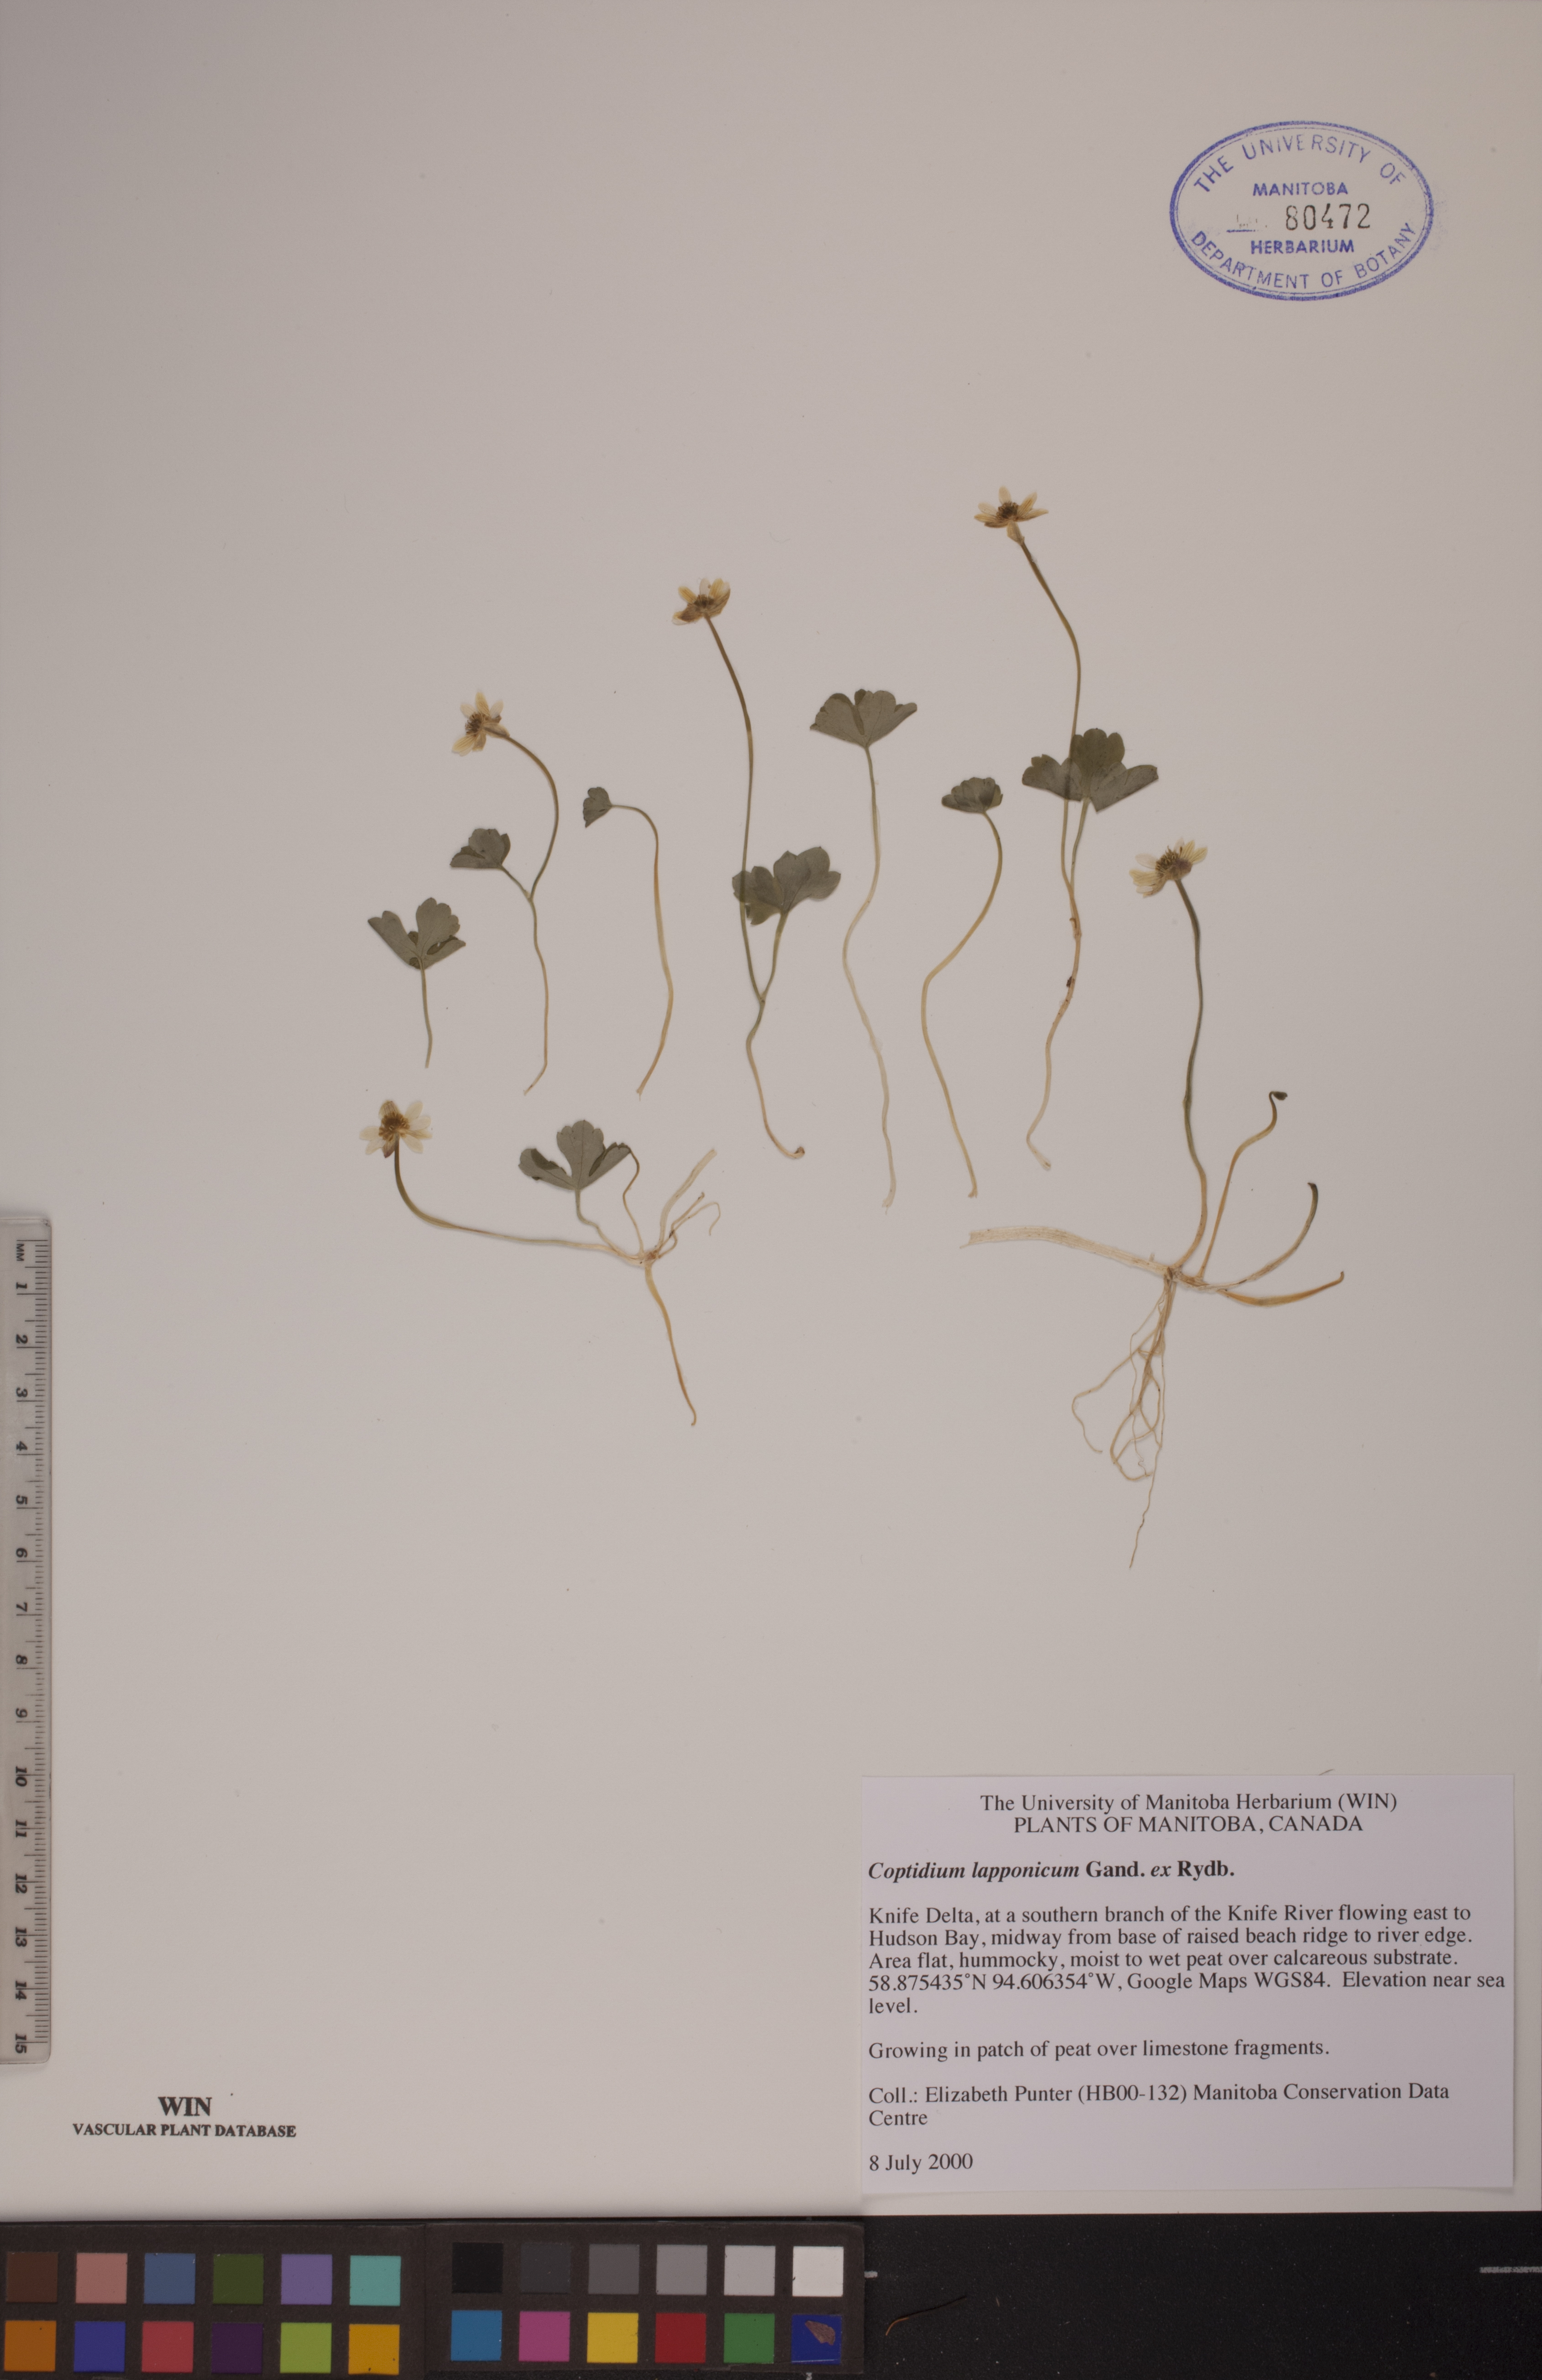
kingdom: Plantae
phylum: Tracheophyta
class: Magnoliopsida
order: Ranunculales
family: Ranunculaceae
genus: Coptidium
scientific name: Coptidium lapponicum
